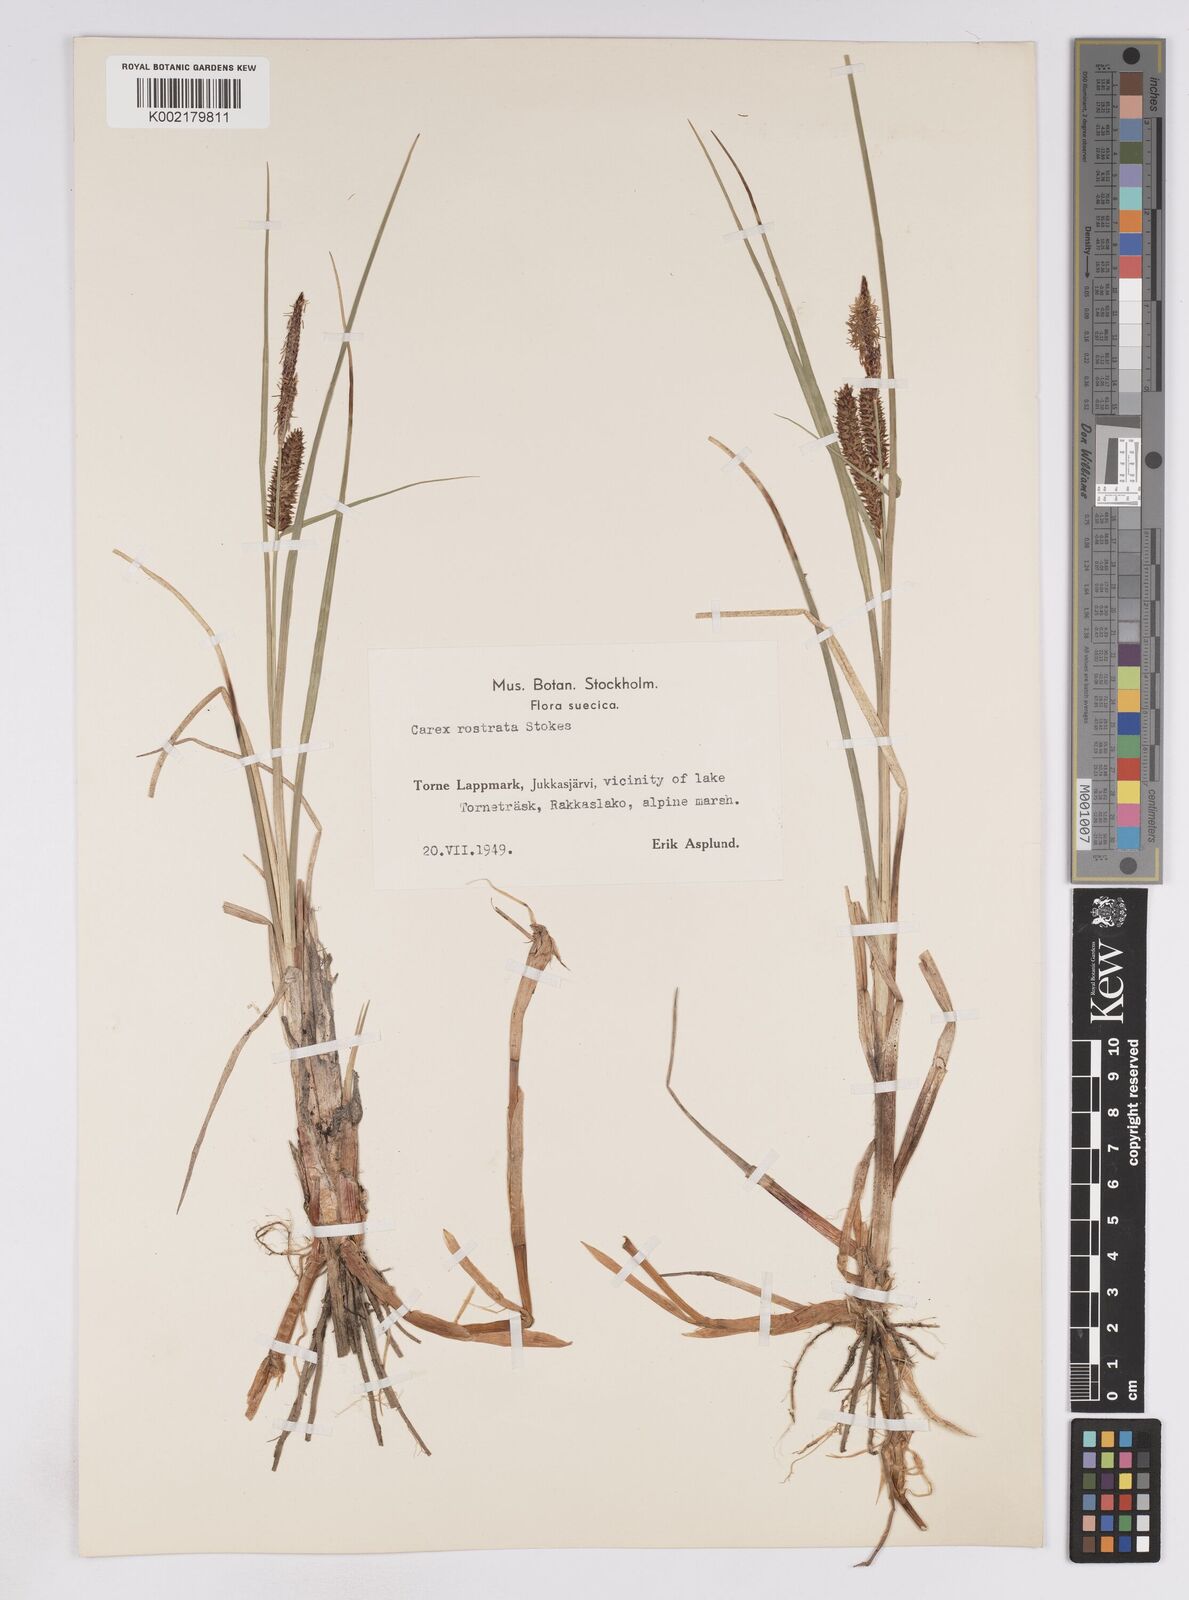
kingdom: Plantae
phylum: Tracheophyta
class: Liliopsida
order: Poales
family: Cyperaceae
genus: Carex
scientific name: Carex rostrata
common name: Bottle sedge
